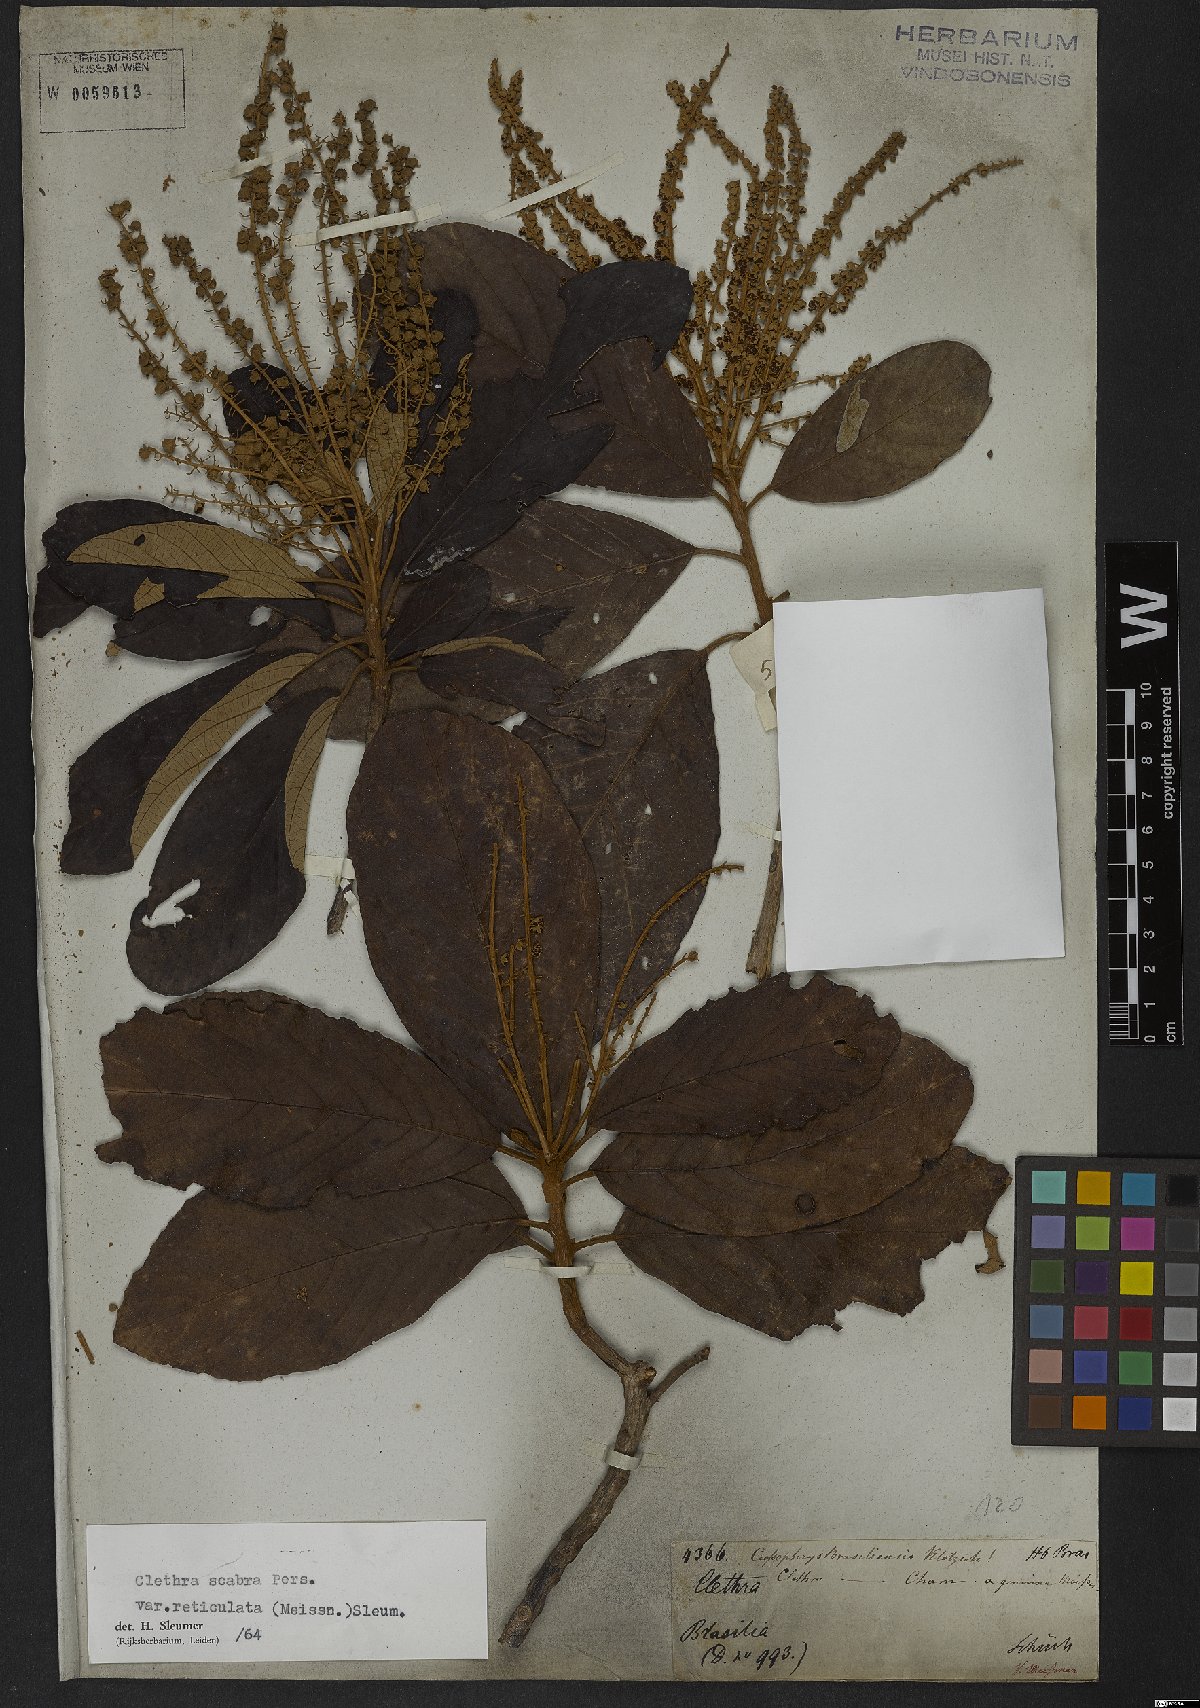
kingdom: Plantae
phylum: Tracheophyta
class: Magnoliopsida
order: Ericales
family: Clethraceae
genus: Clethra
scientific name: Clethra scabra
